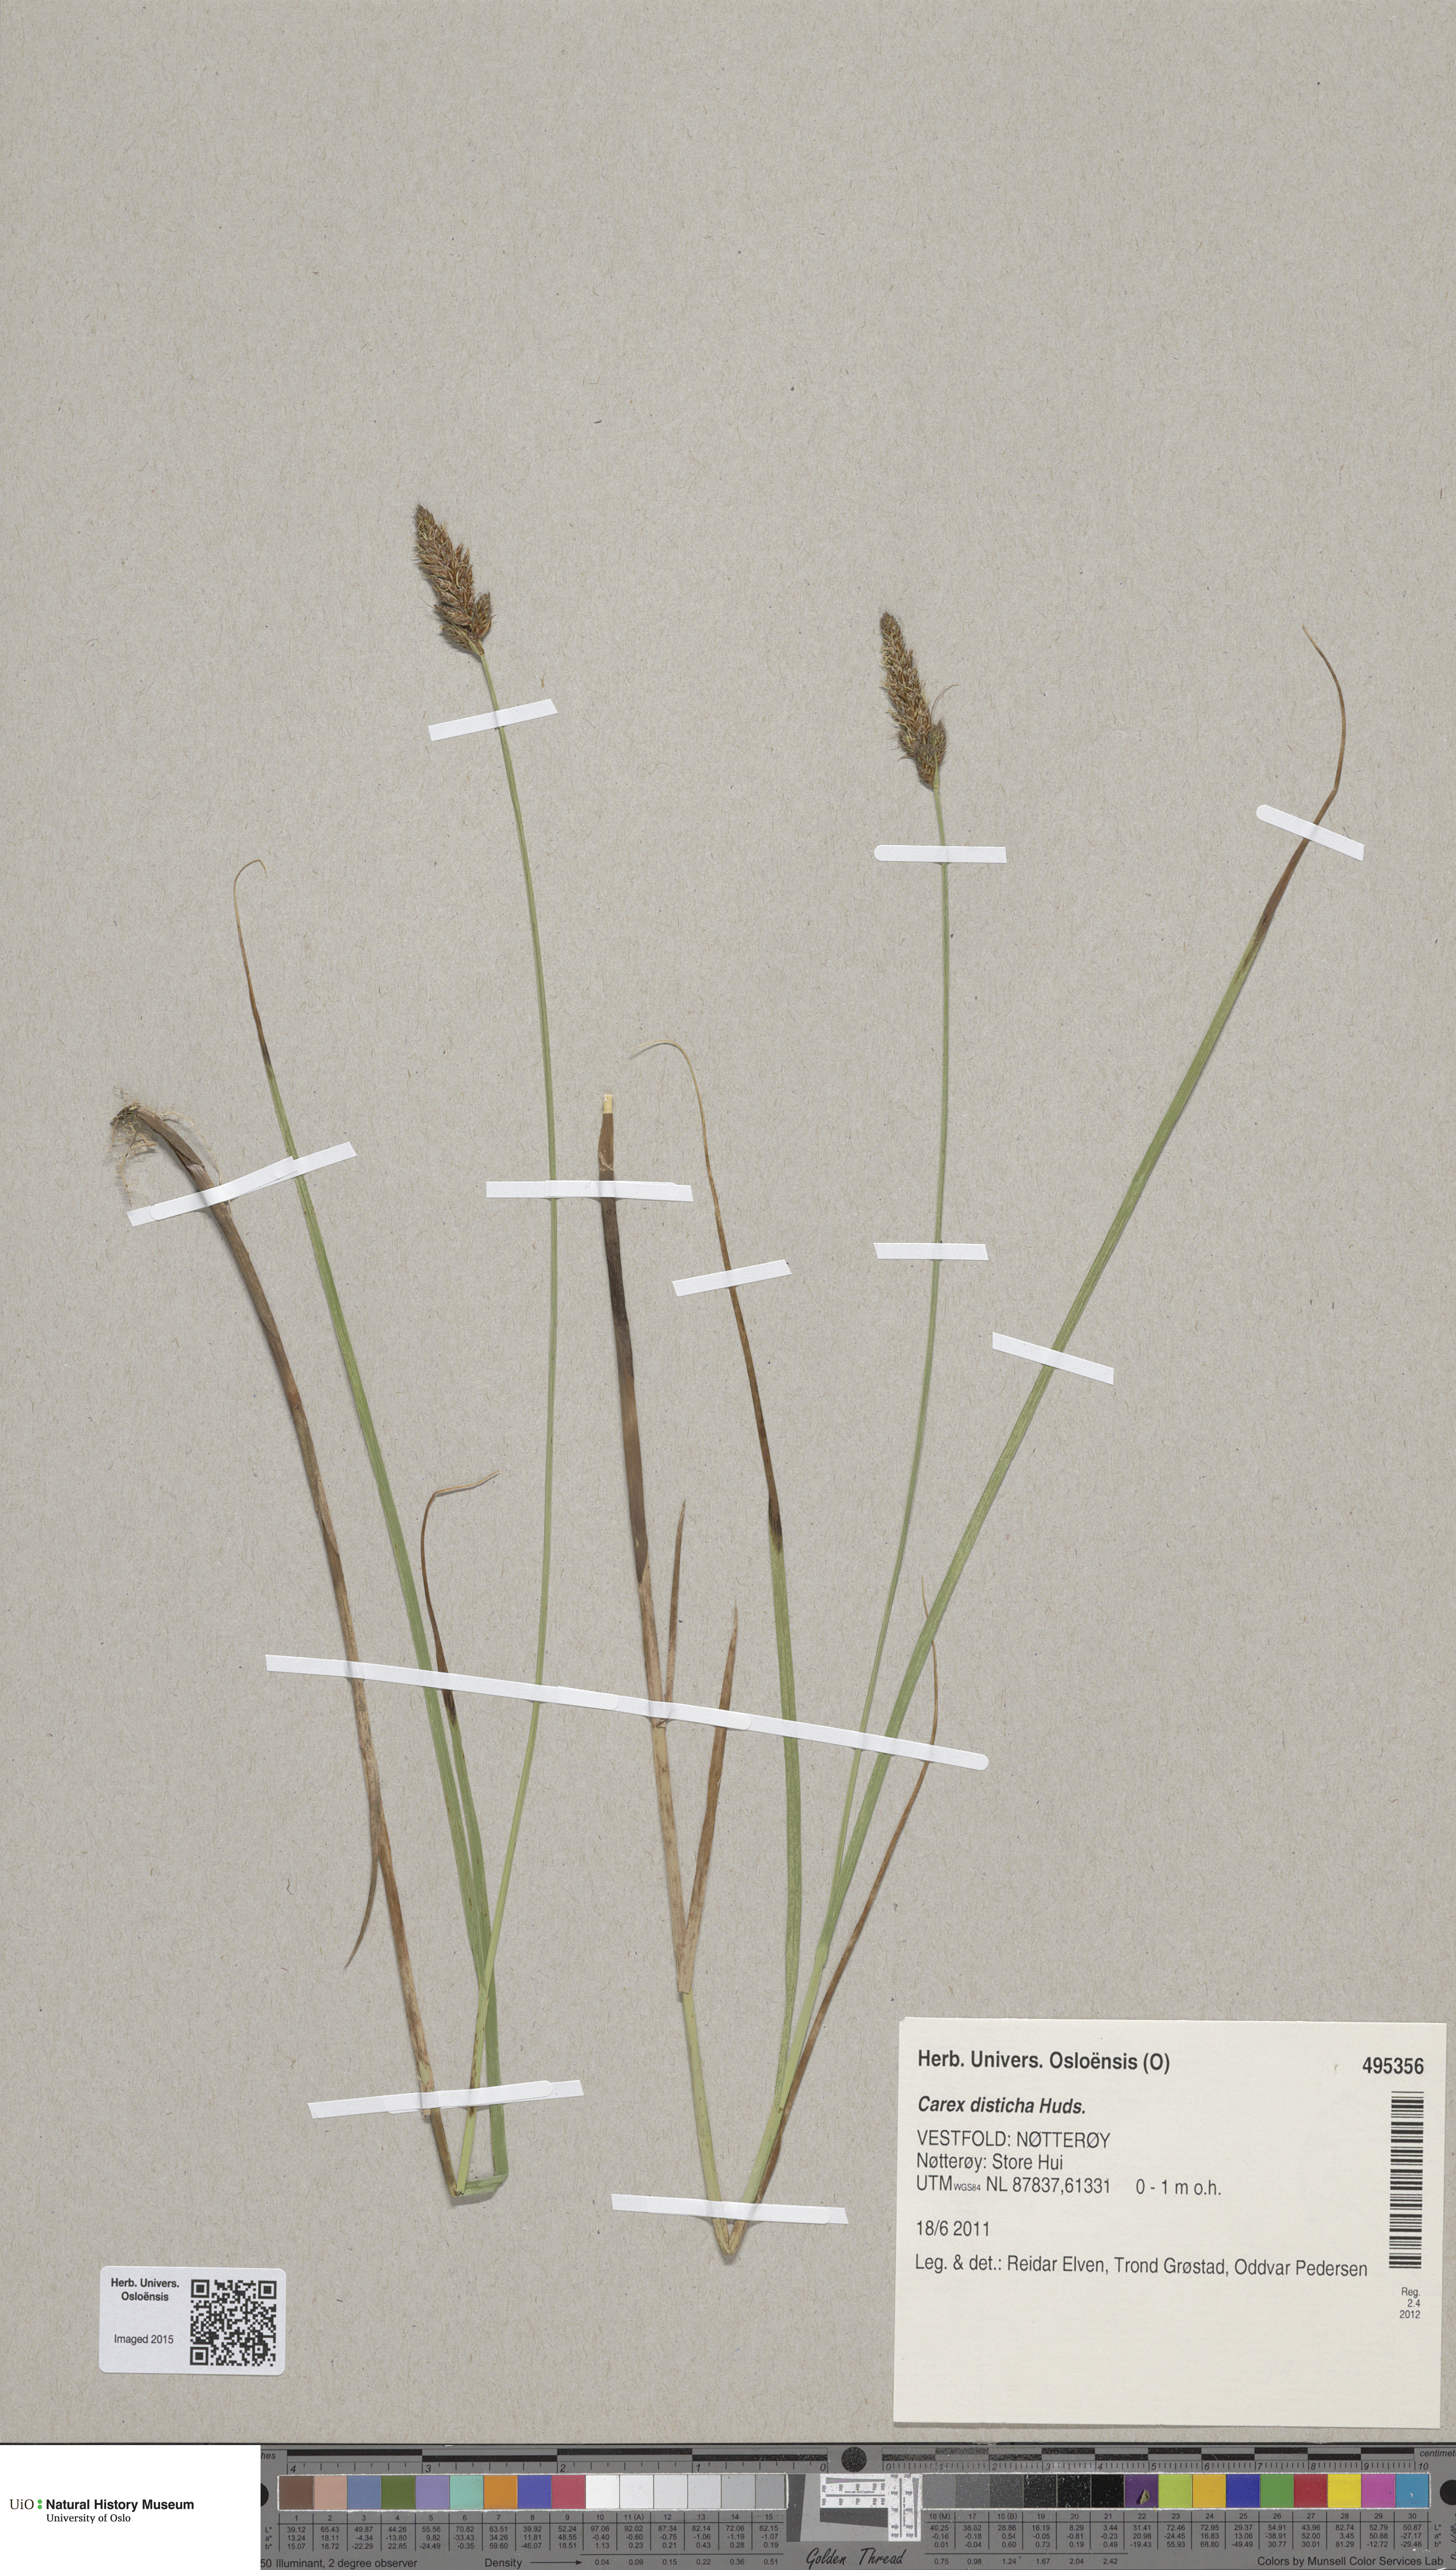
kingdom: Plantae
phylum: Tracheophyta
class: Liliopsida
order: Poales
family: Cyperaceae
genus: Carex
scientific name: Carex disticha
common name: Brown sedge
